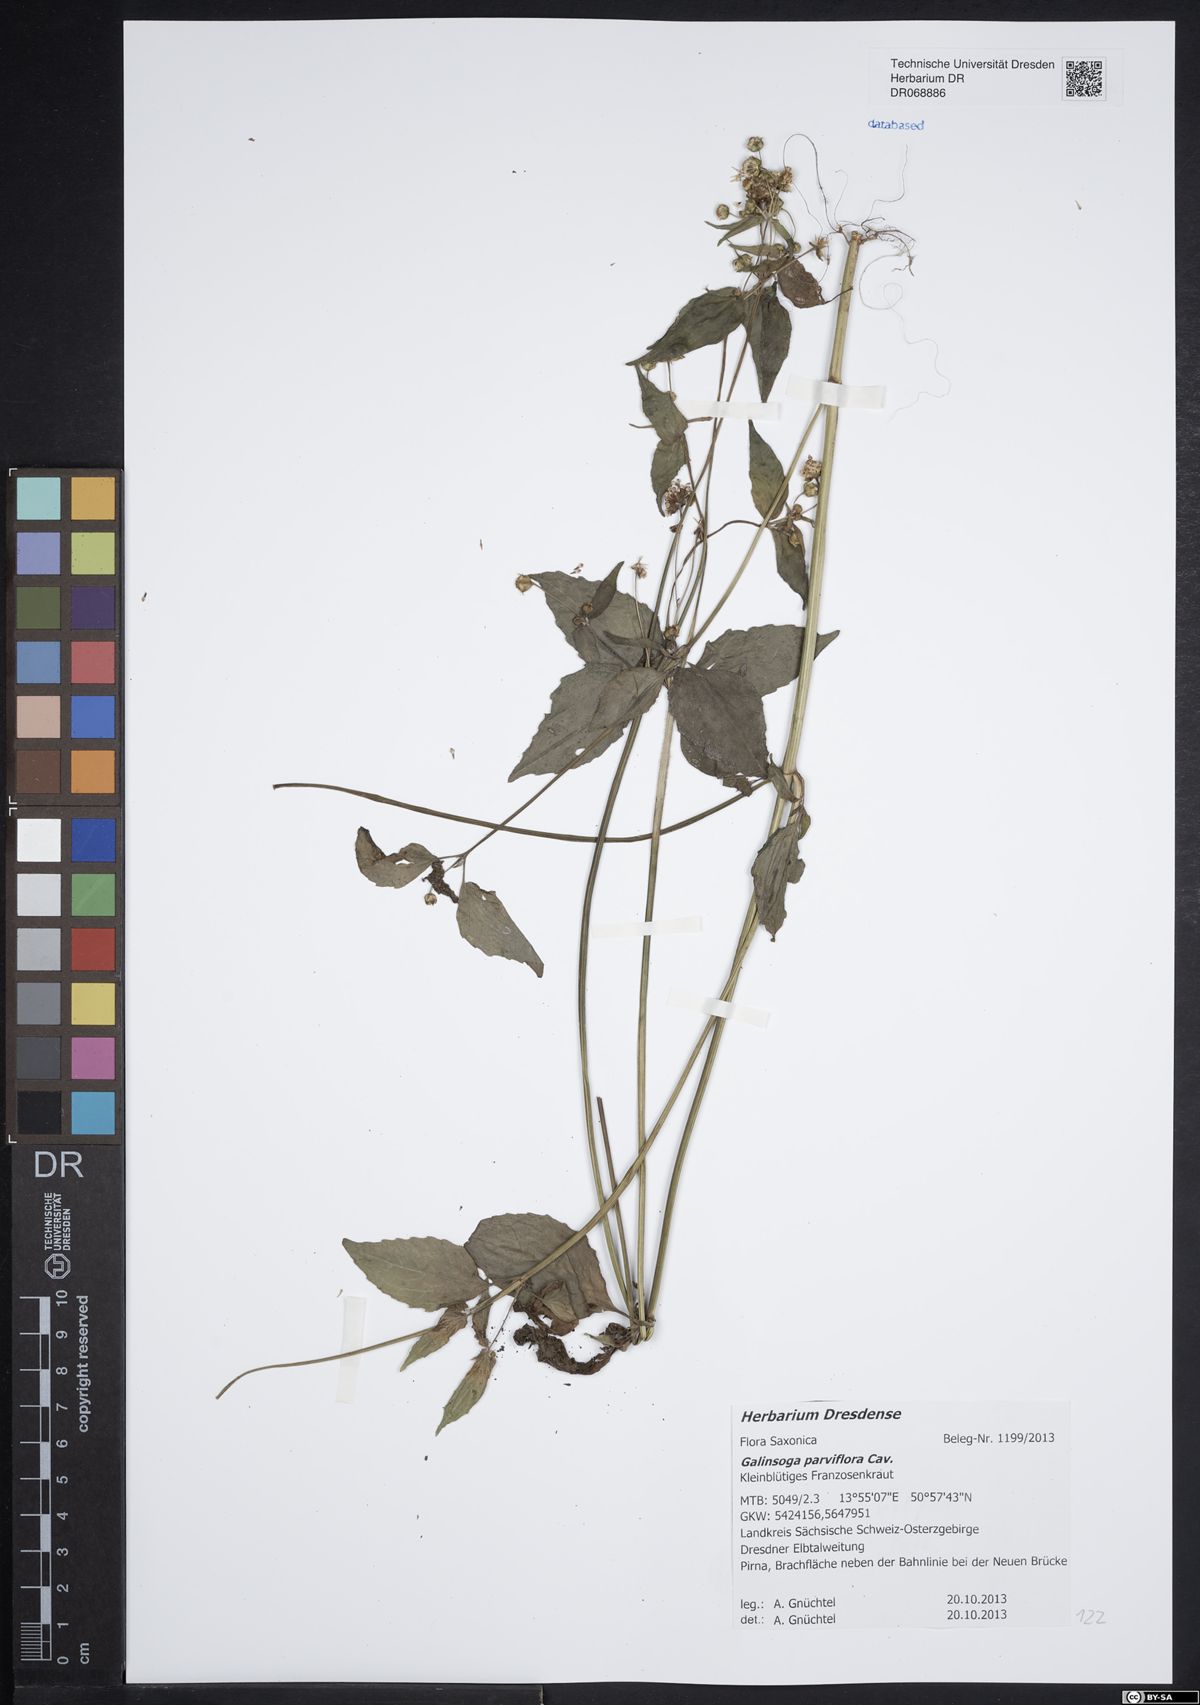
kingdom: Plantae
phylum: Tracheophyta
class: Magnoliopsida
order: Asterales
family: Asteraceae
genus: Galinsoga
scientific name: Galinsoga parviflora
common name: Gallant soldier
